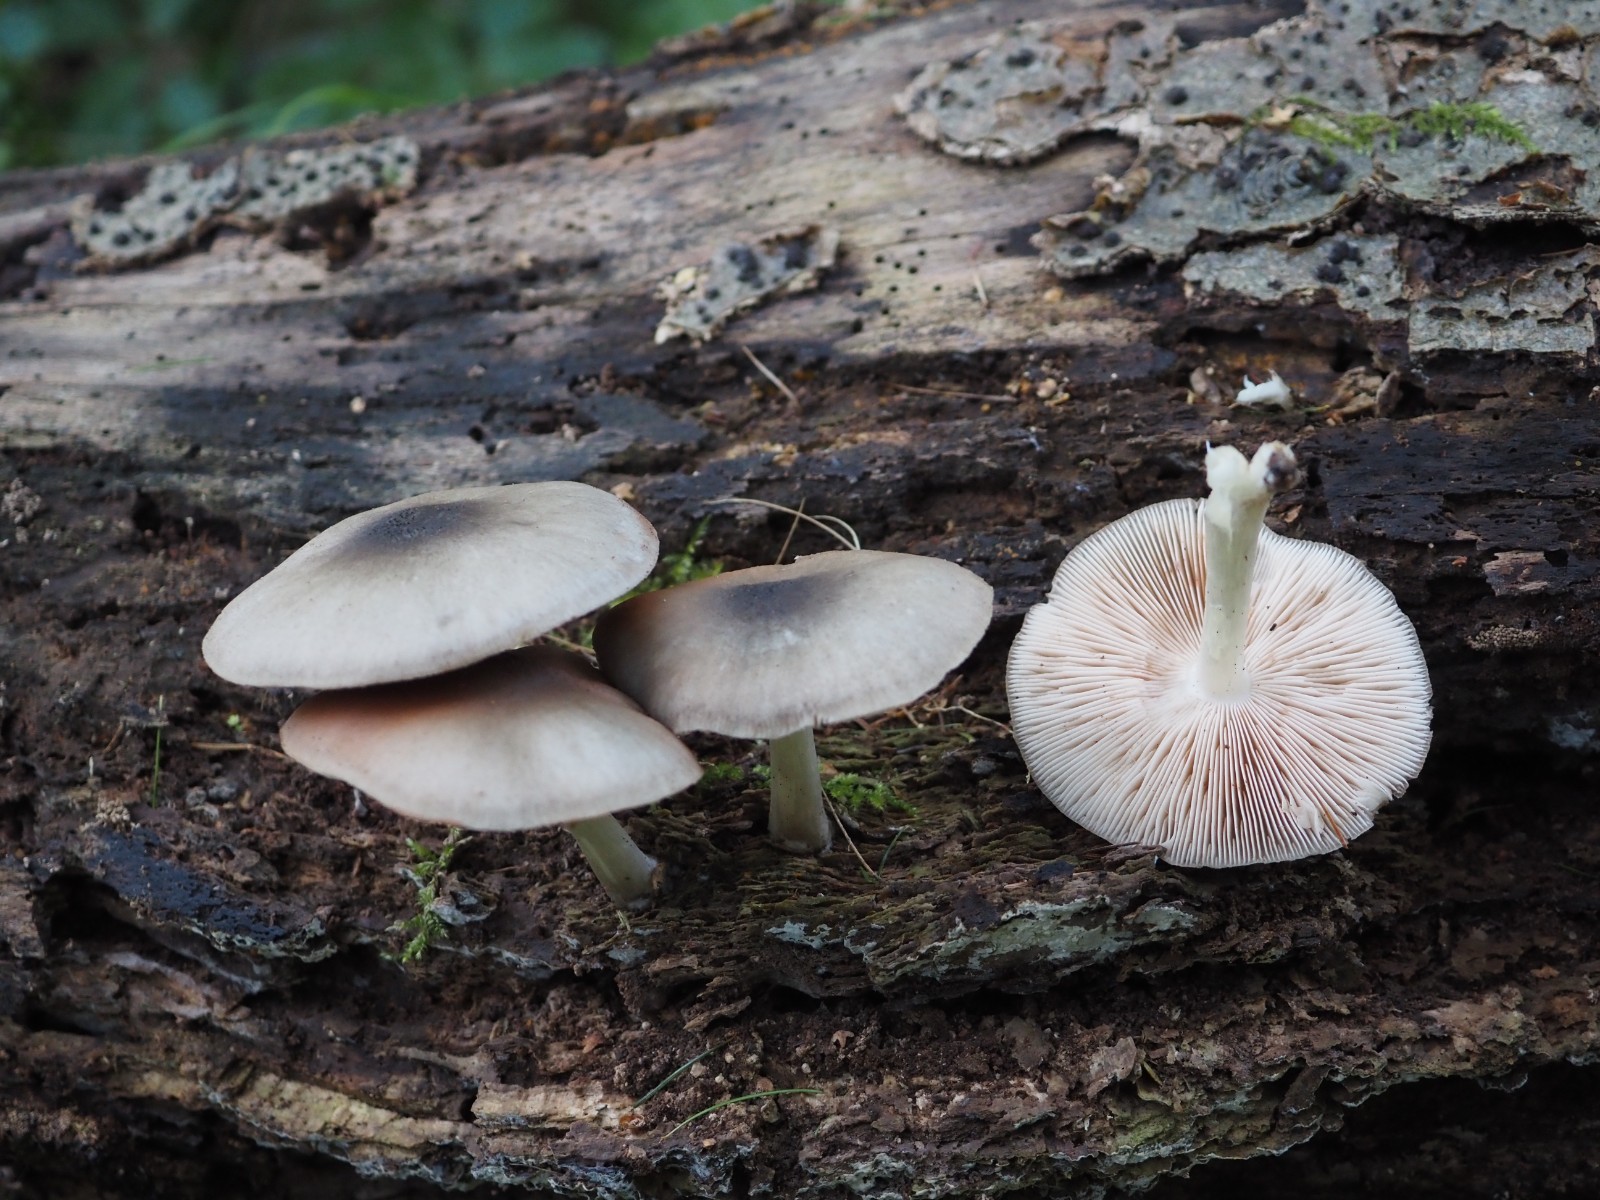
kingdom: Fungi
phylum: Basidiomycota
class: Agaricomycetes
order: Agaricales
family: Pluteaceae
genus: Pluteus
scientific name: Pluteus salicinus
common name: stiv skærmhat
